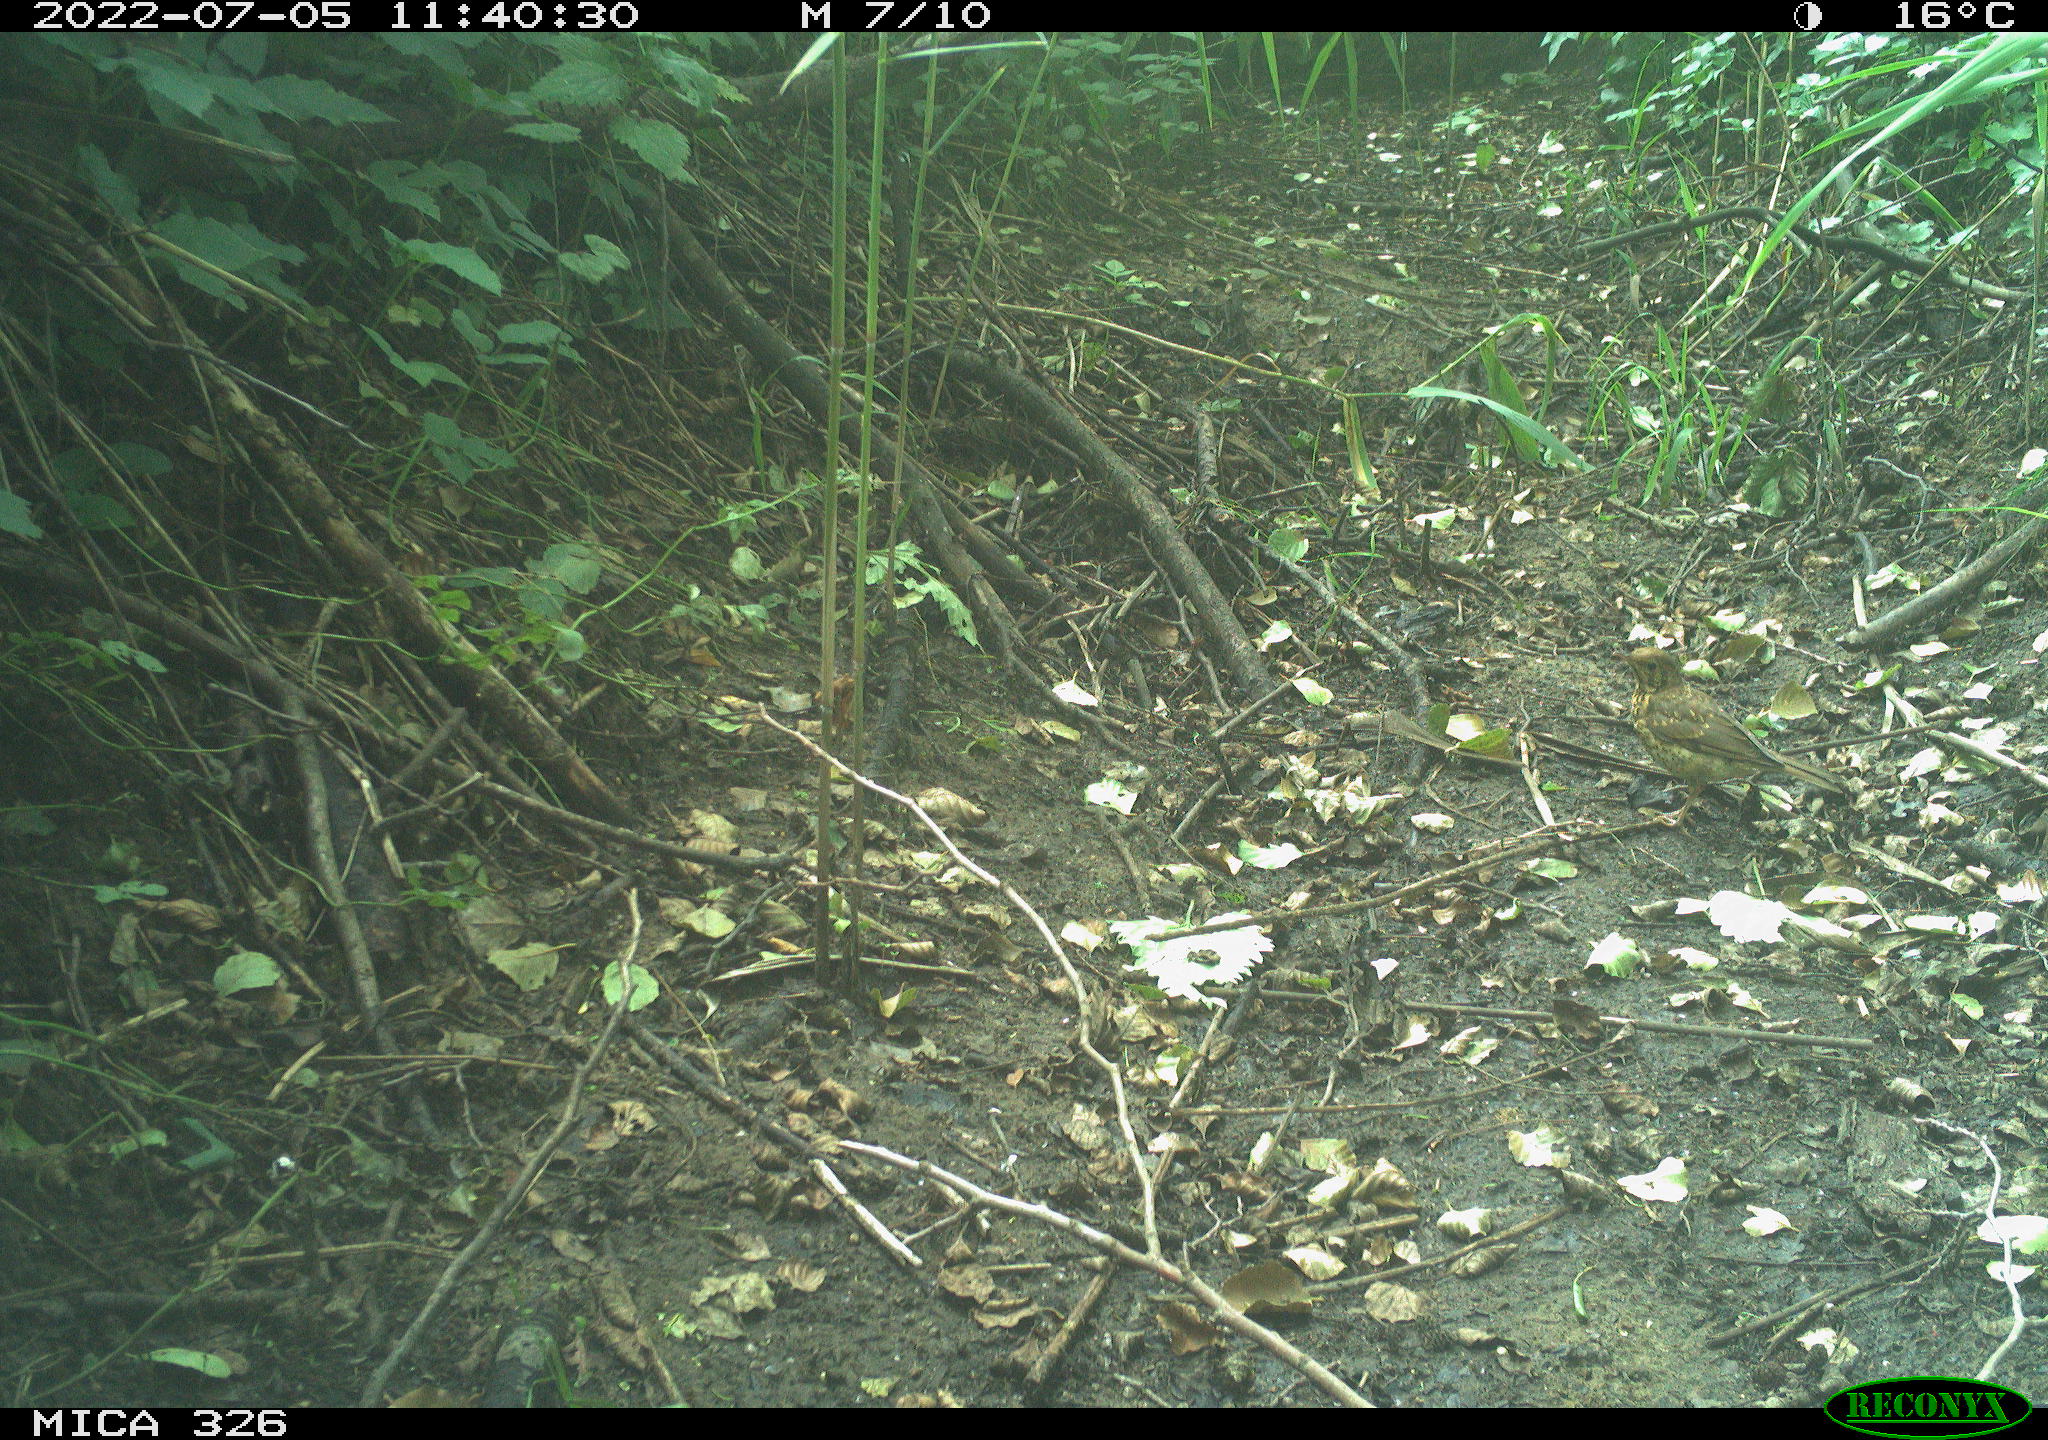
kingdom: Animalia
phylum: Chordata
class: Aves
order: Passeriformes
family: Turdidae
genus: Turdus
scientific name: Turdus philomelos
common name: Song thrush
